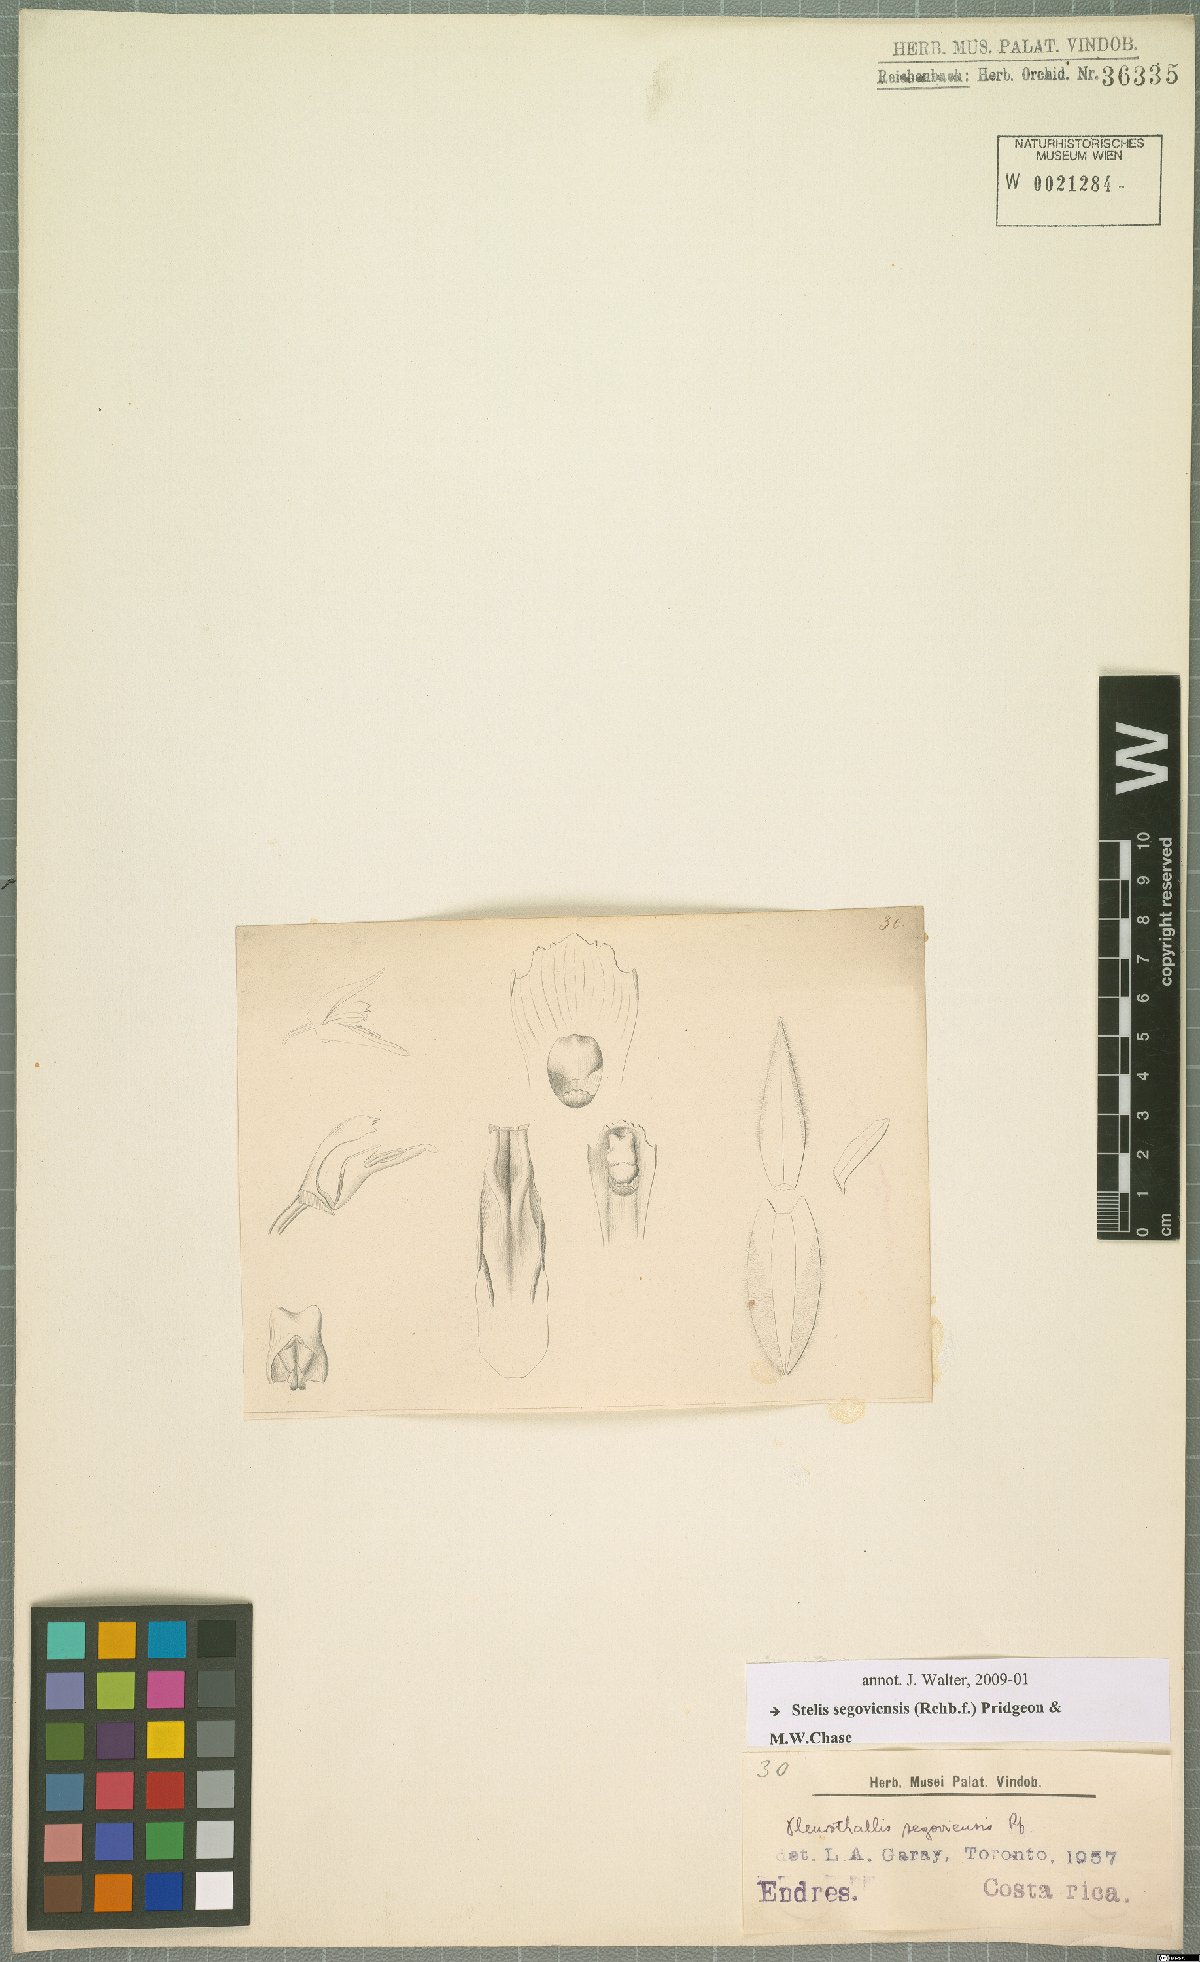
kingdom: Plantae
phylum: Tracheophyta
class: Liliopsida
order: Asparagales
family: Orchidaceae
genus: Stelis
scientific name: Stelis segoviensis
